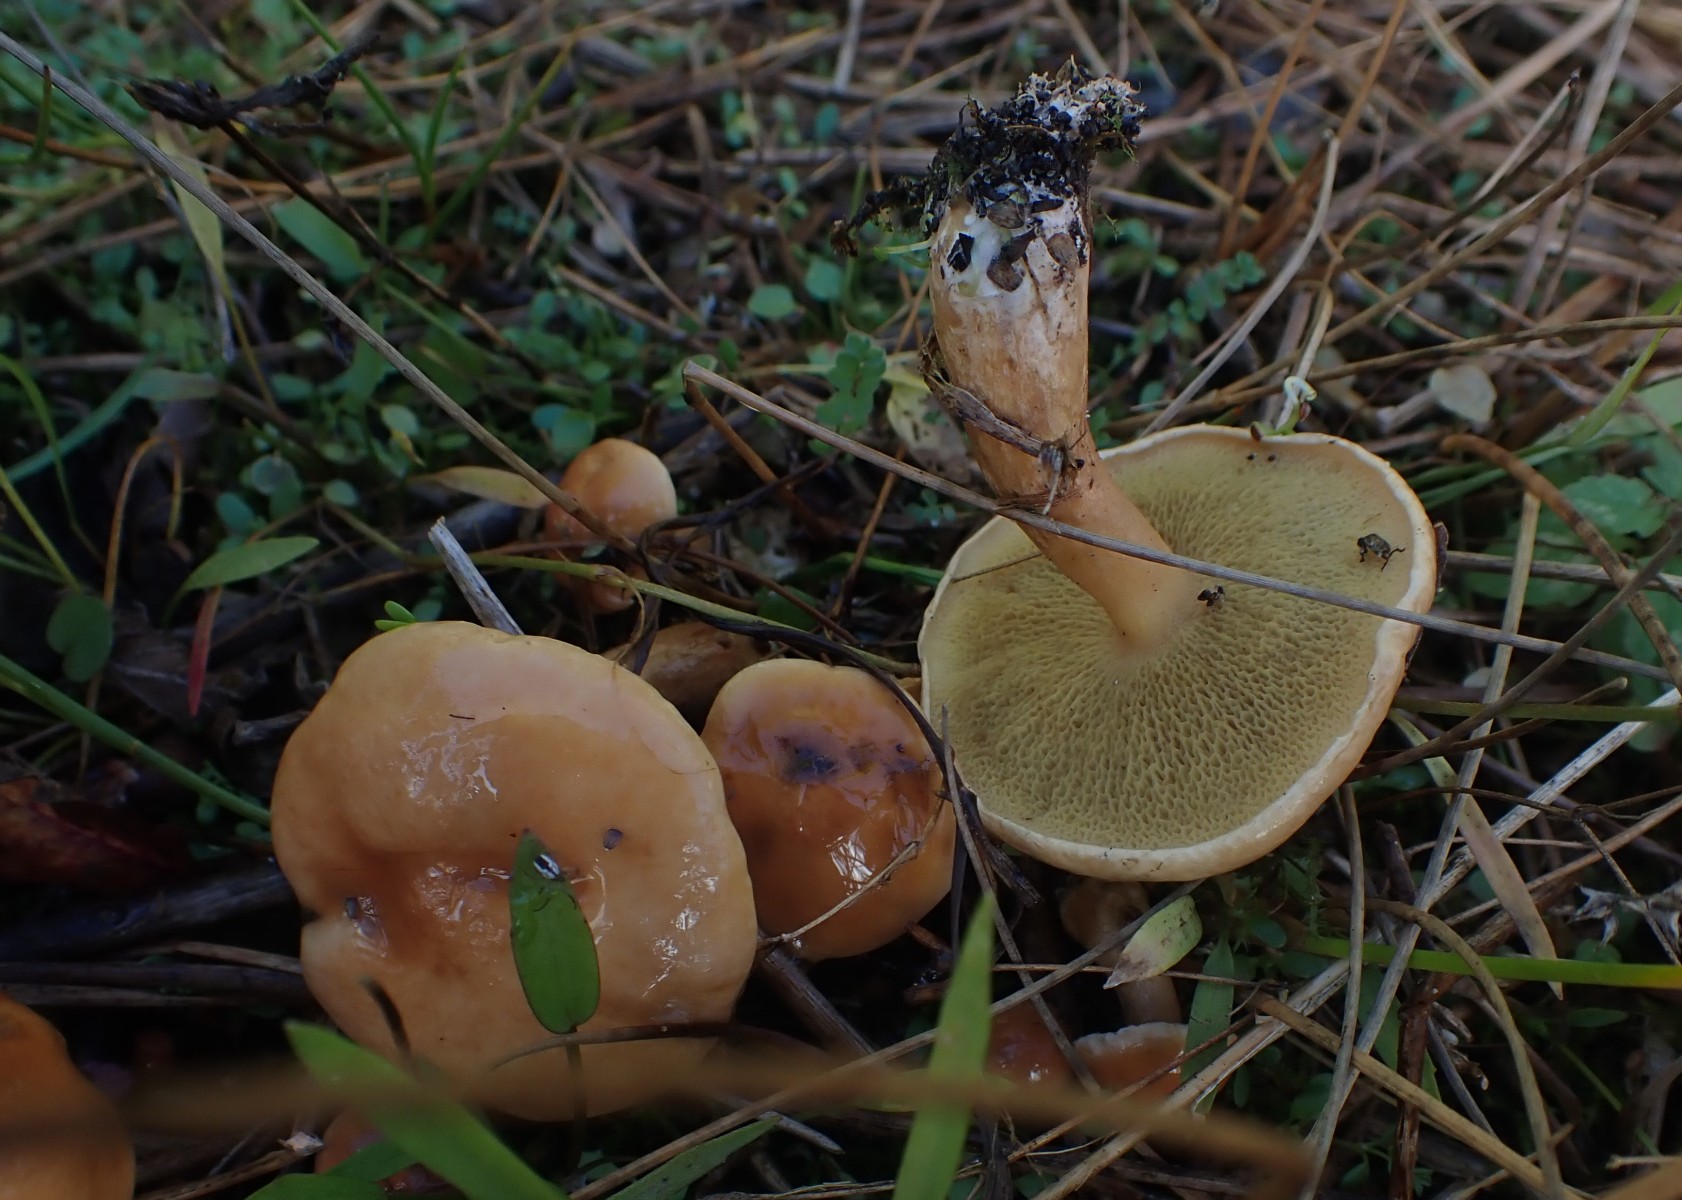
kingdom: Fungi
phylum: Basidiomycota
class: Agaricomycetes
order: Boletales
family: Suillaceae
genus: Suillus
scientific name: Suillus bovinus
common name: grovporet slimrørhat
